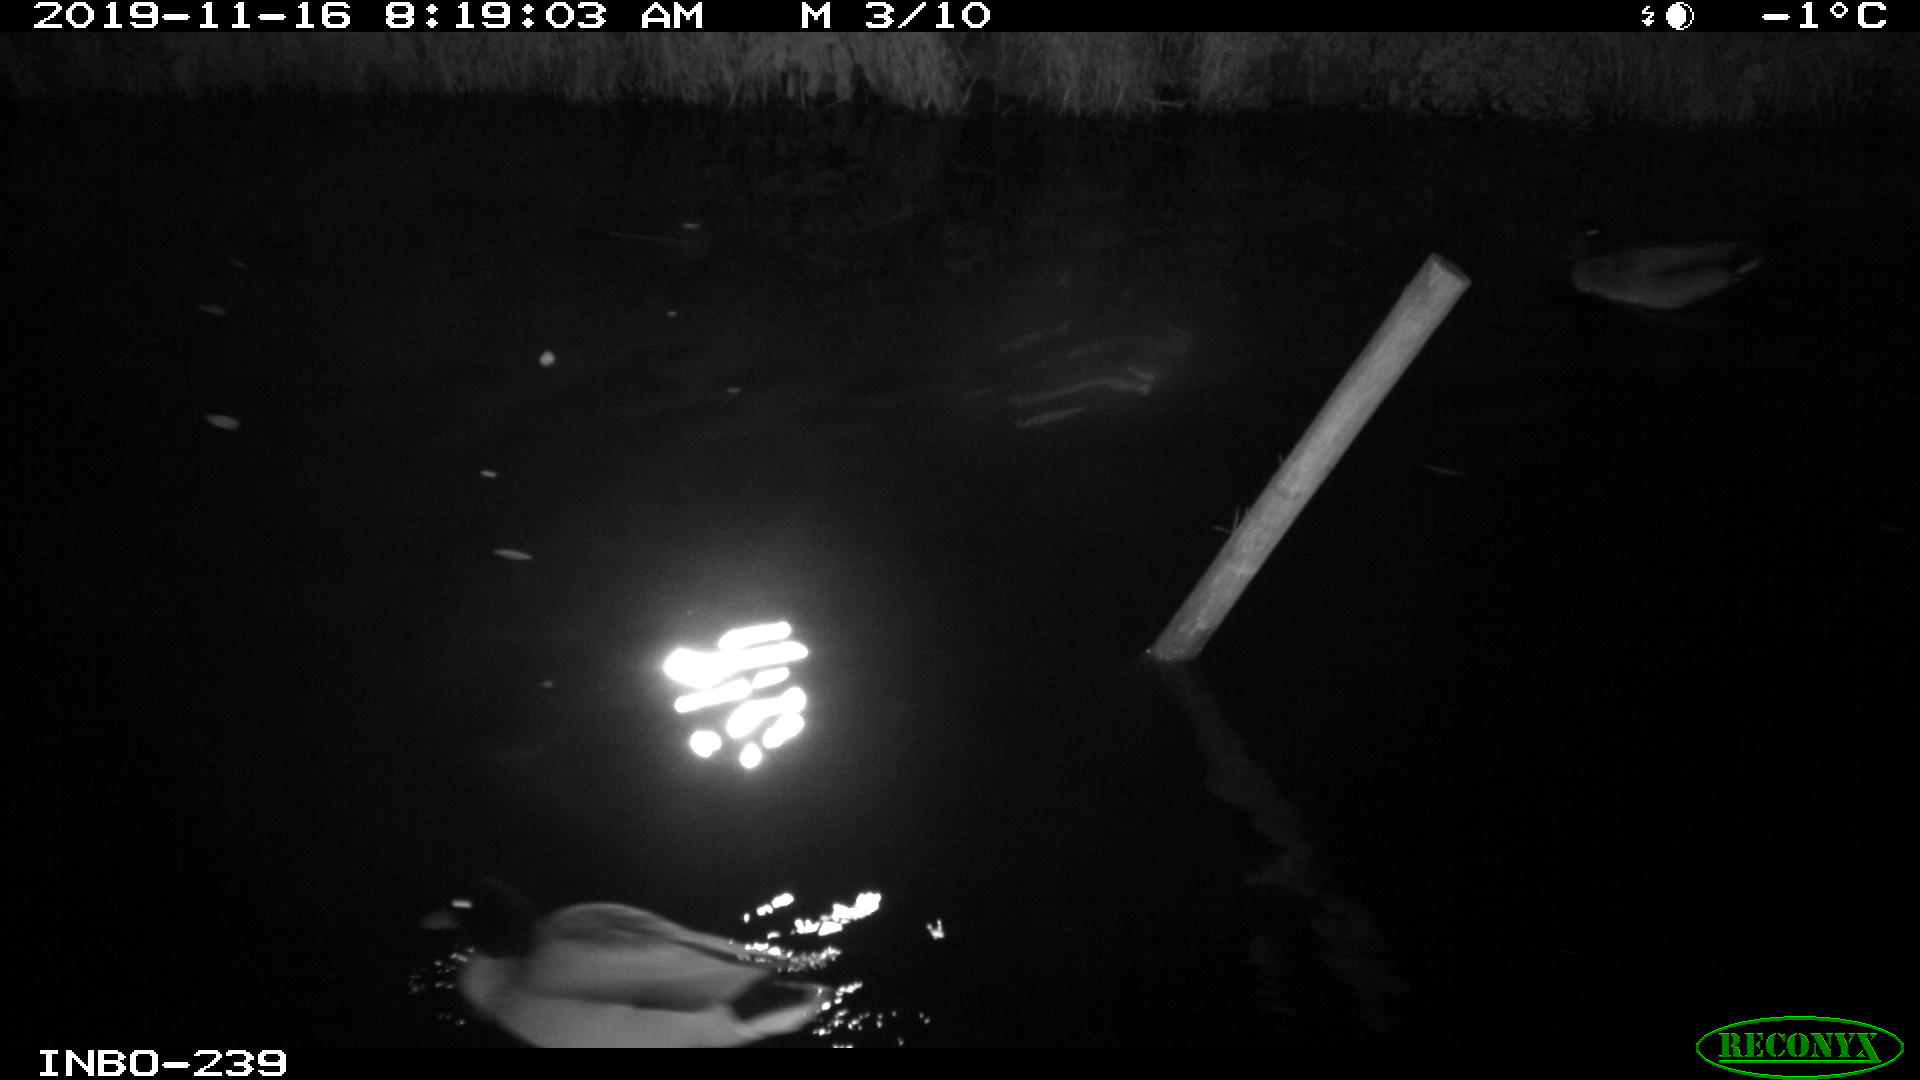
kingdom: Animalia
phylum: Chordata
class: Aves
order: Gruiformes
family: Rallidae
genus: Gallinula
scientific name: Gallinula chloropus
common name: Common moorhen
